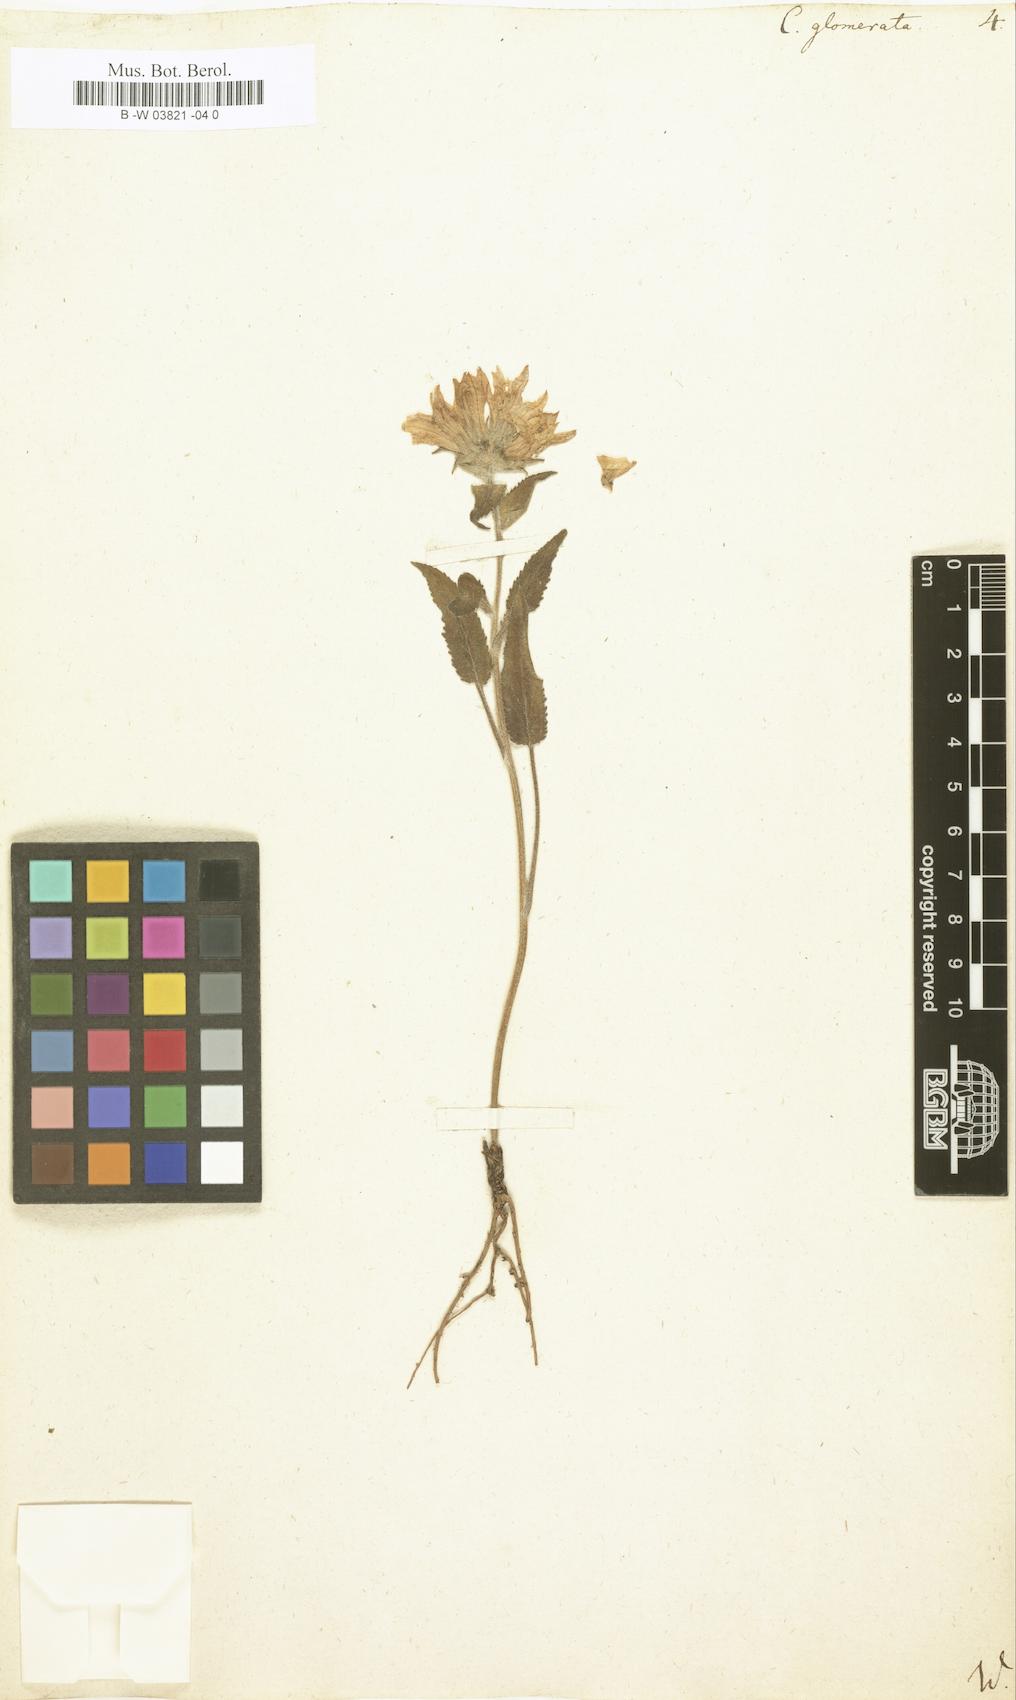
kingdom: Plantae
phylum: Tracheophyta
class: Magnoliopsida
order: Asterales
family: Campanulaceae
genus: Campanula
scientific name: Campanula glomerata
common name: Clustered bellflower
